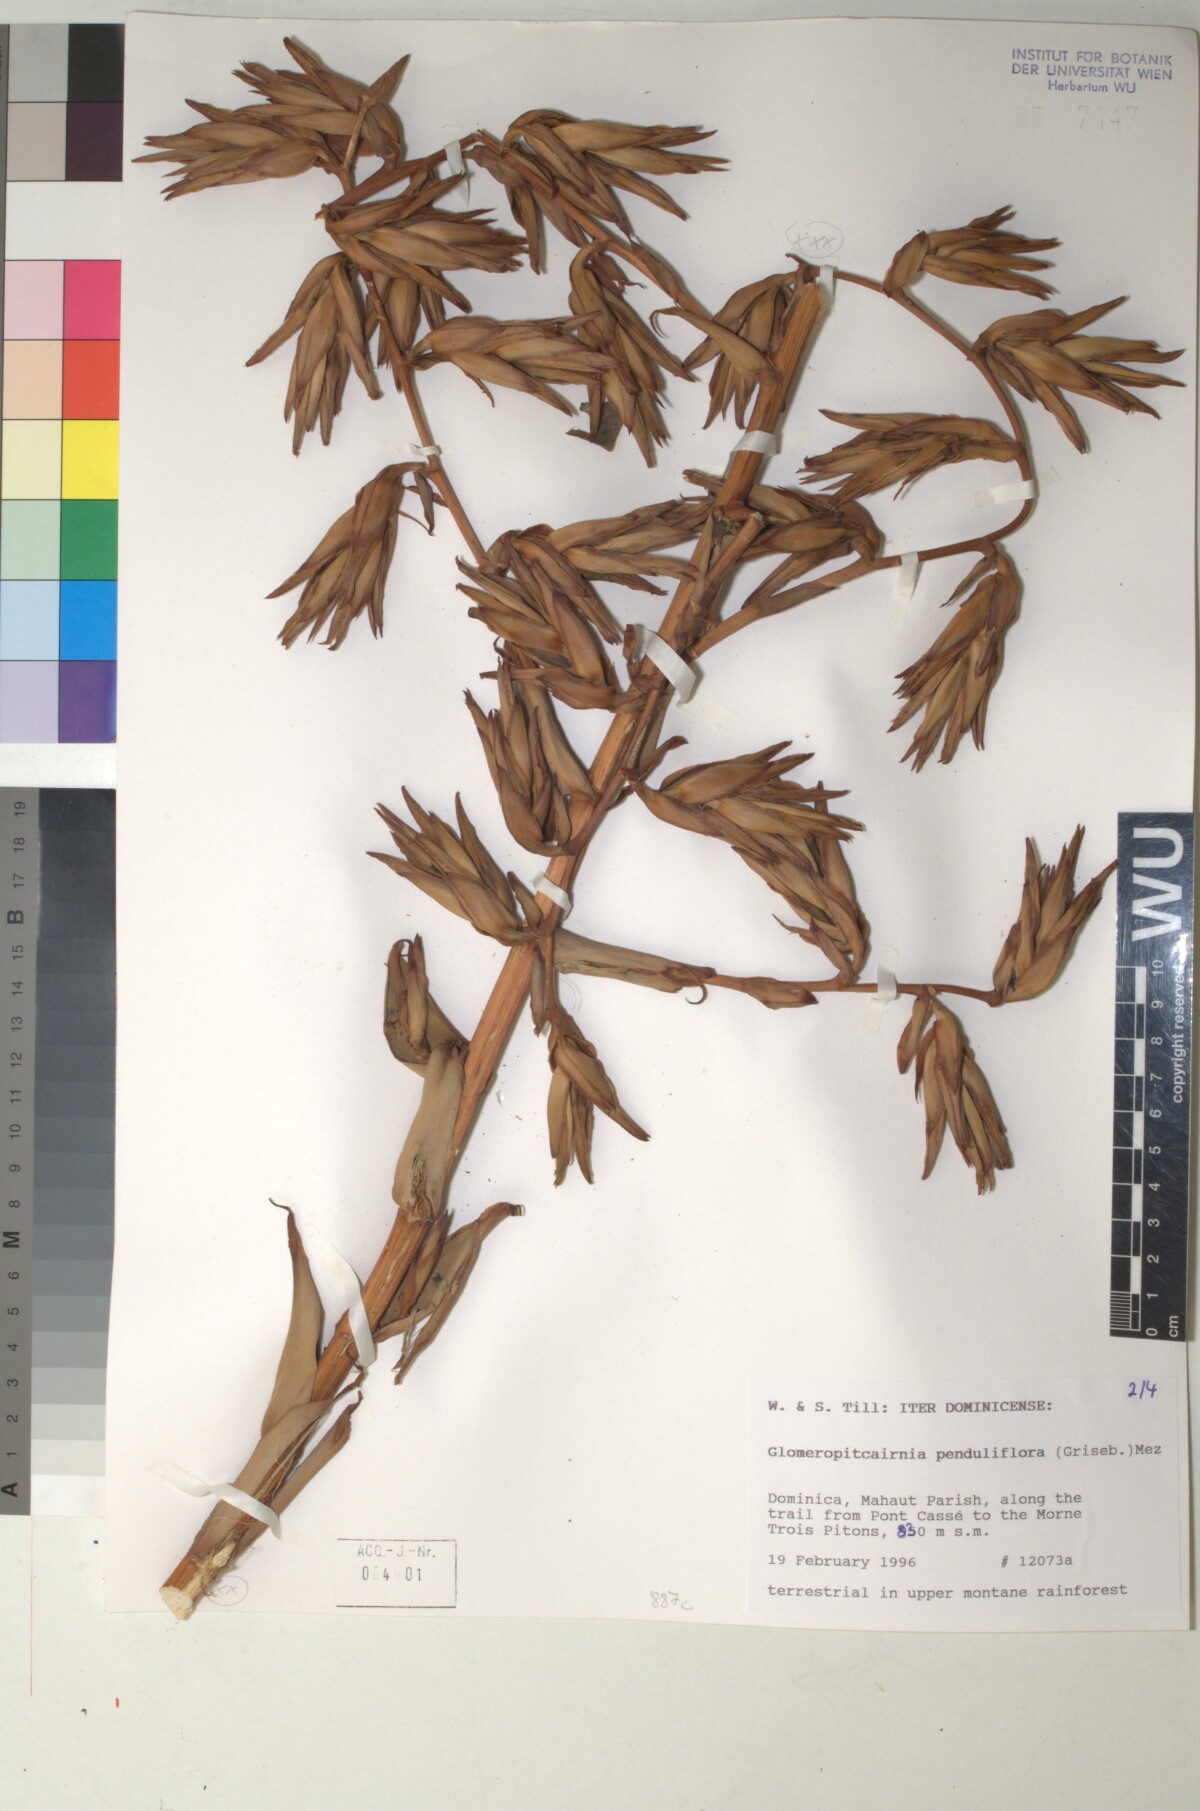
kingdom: Plantae
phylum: Tracheophyta
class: Liliopsida
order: Poales
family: Bromeliaceae
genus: Glomeropitcairnia
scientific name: Glomeropitcairnia penduliflora
